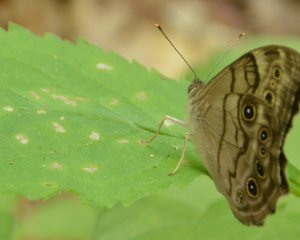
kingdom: Animalia
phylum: Arthropoda
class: Insecta
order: Lepidoptera
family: Nymphalidae
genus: Lethe
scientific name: Lethe anthedon
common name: Northern Pearly-Eye
